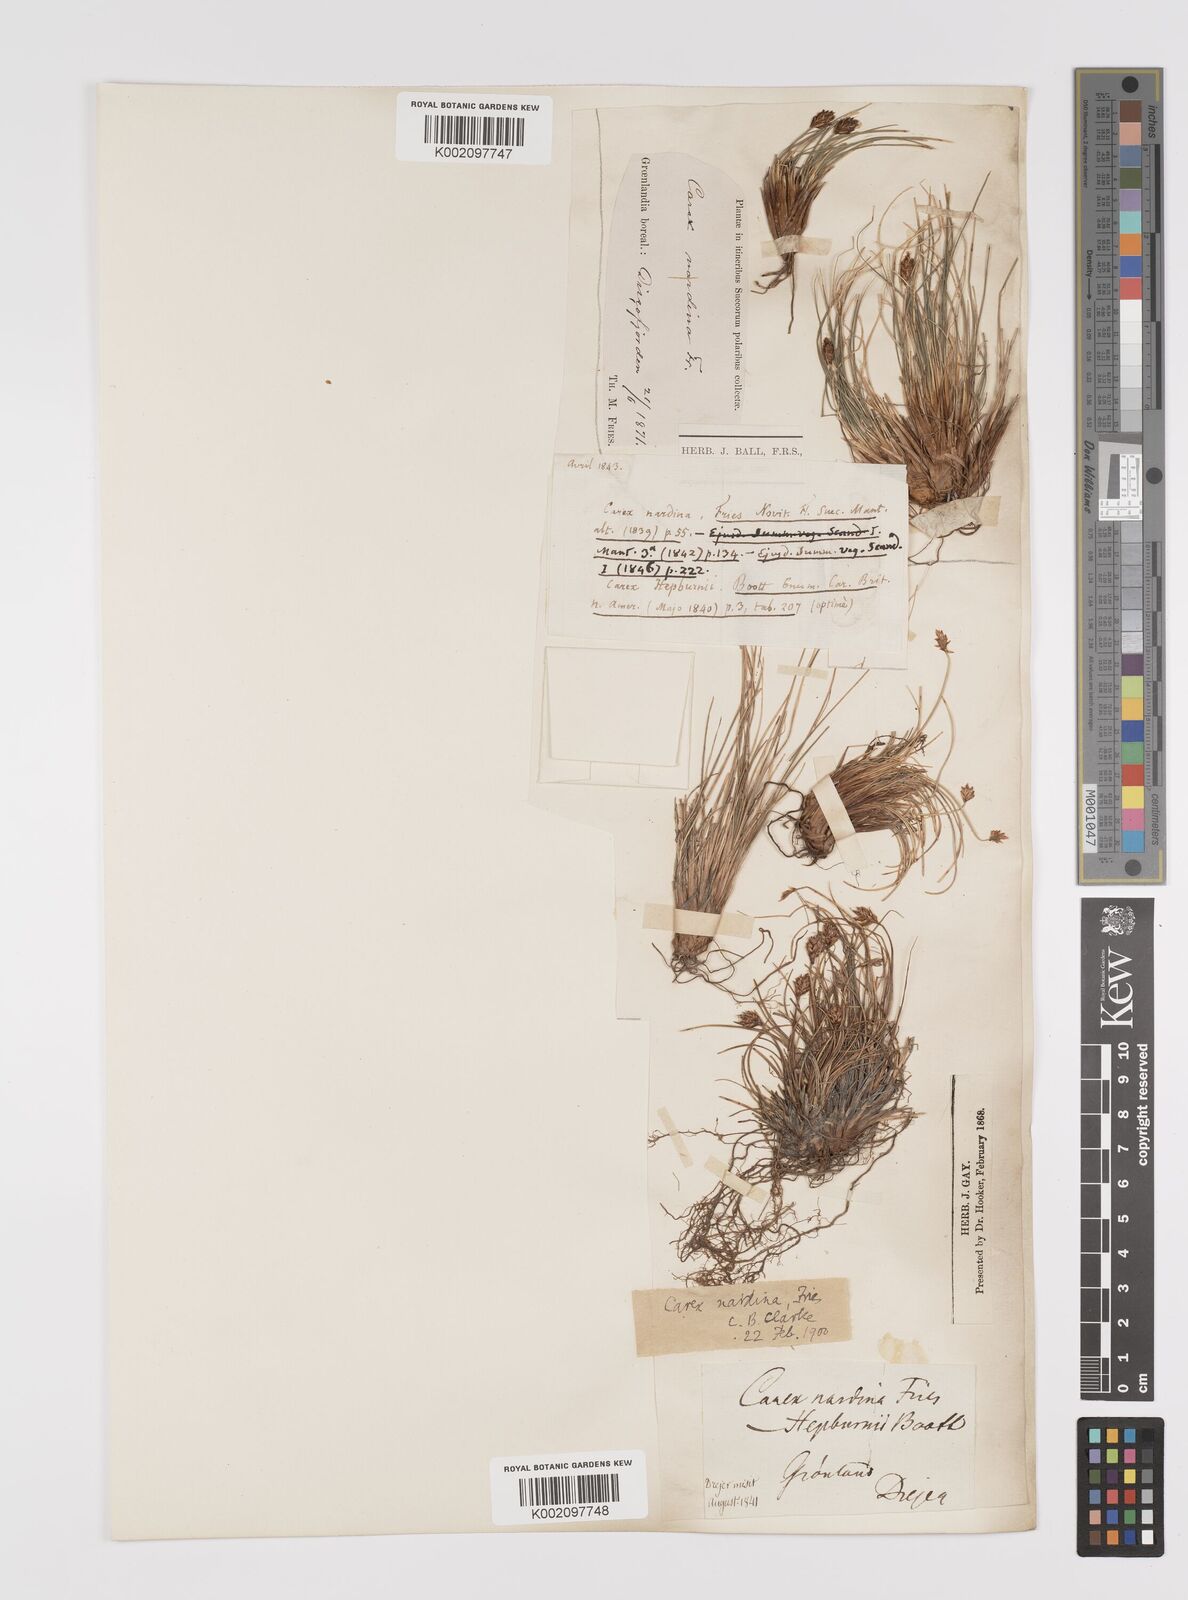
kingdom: Plantae
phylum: Tracheophyta
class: Liliopsida
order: Poales
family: Cyperaceae
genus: Carex
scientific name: Carex nardina
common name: Nard sedge
